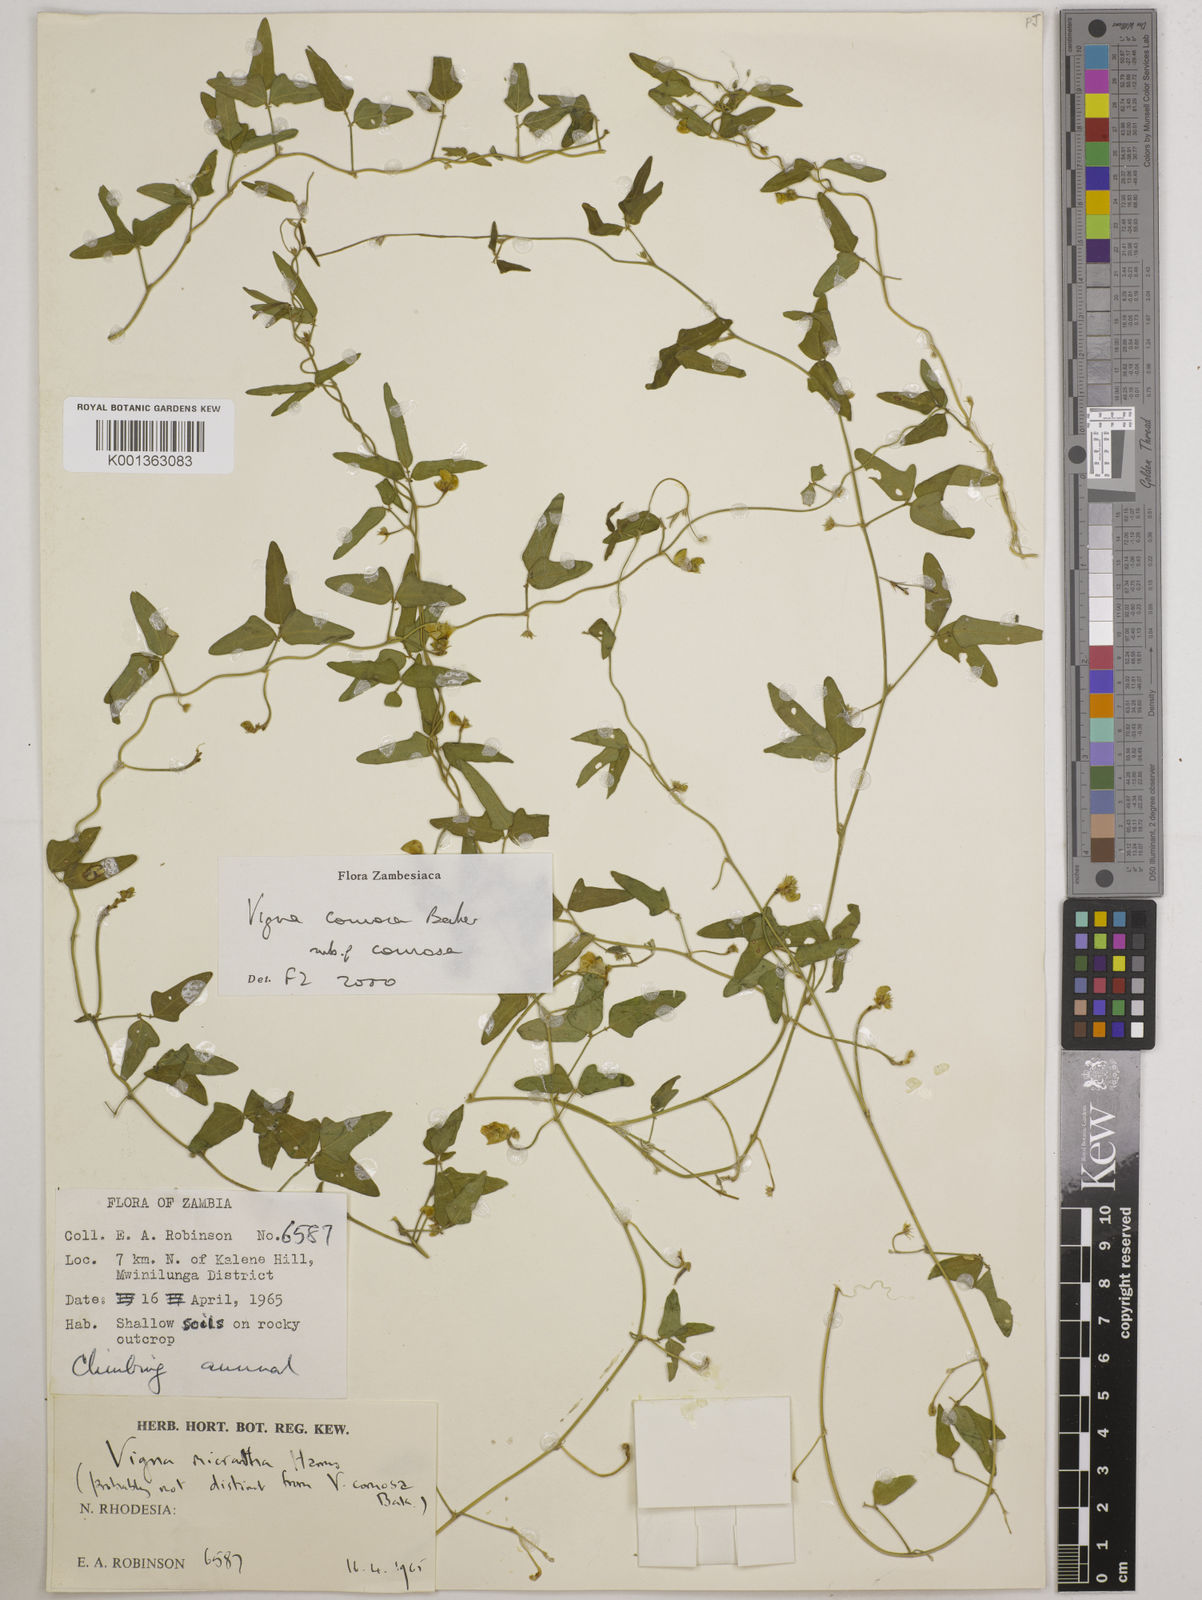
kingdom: Plantae
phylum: Tracheophyta
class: Magnoliopsida
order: Fabales
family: Fabaceae
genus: Vigna
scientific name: Vigna comosa
